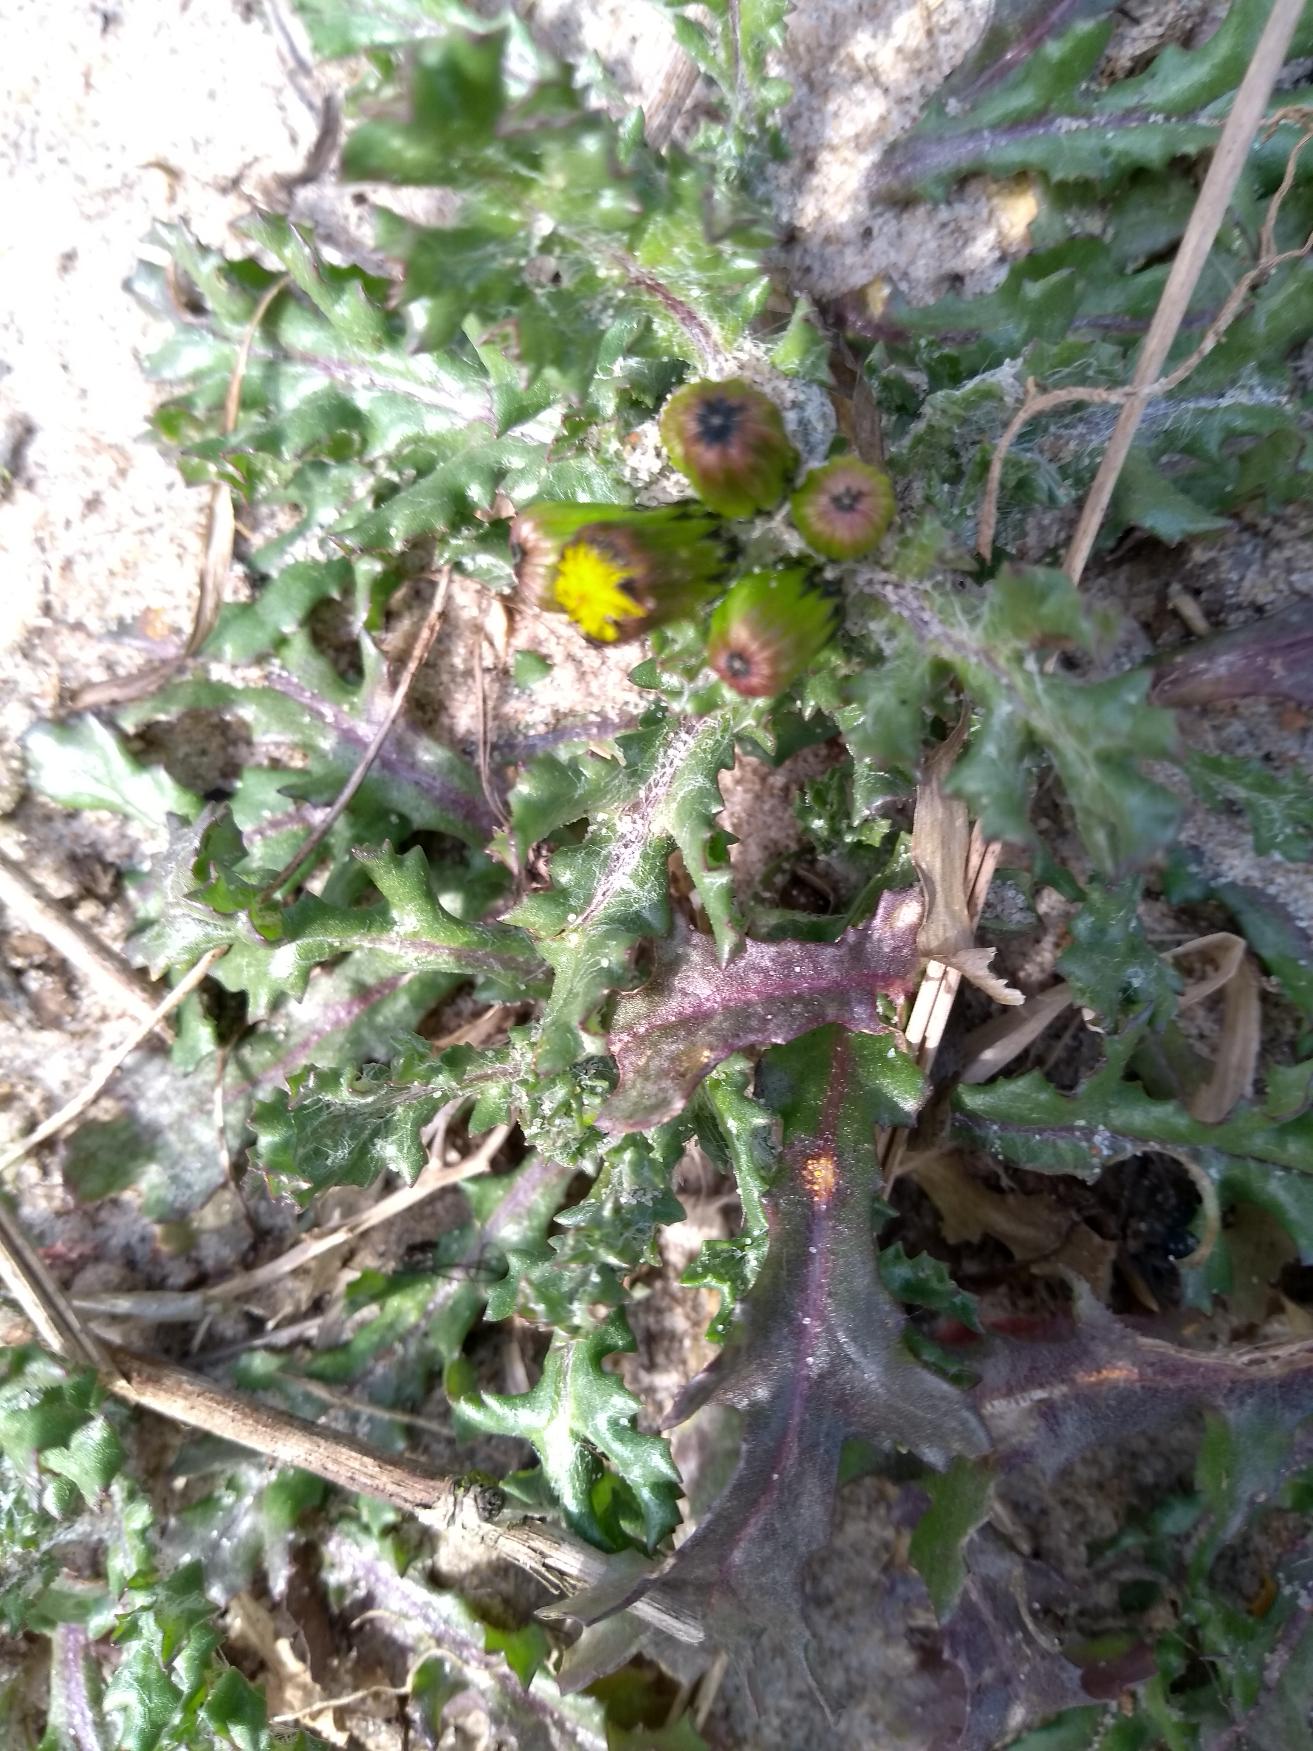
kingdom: Plantae
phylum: Tracheophyta
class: Magnoliopsida
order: Asterales
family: Asteraceae
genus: Senecio
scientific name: Senecio vulgaris
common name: Almindelig brandbæger
